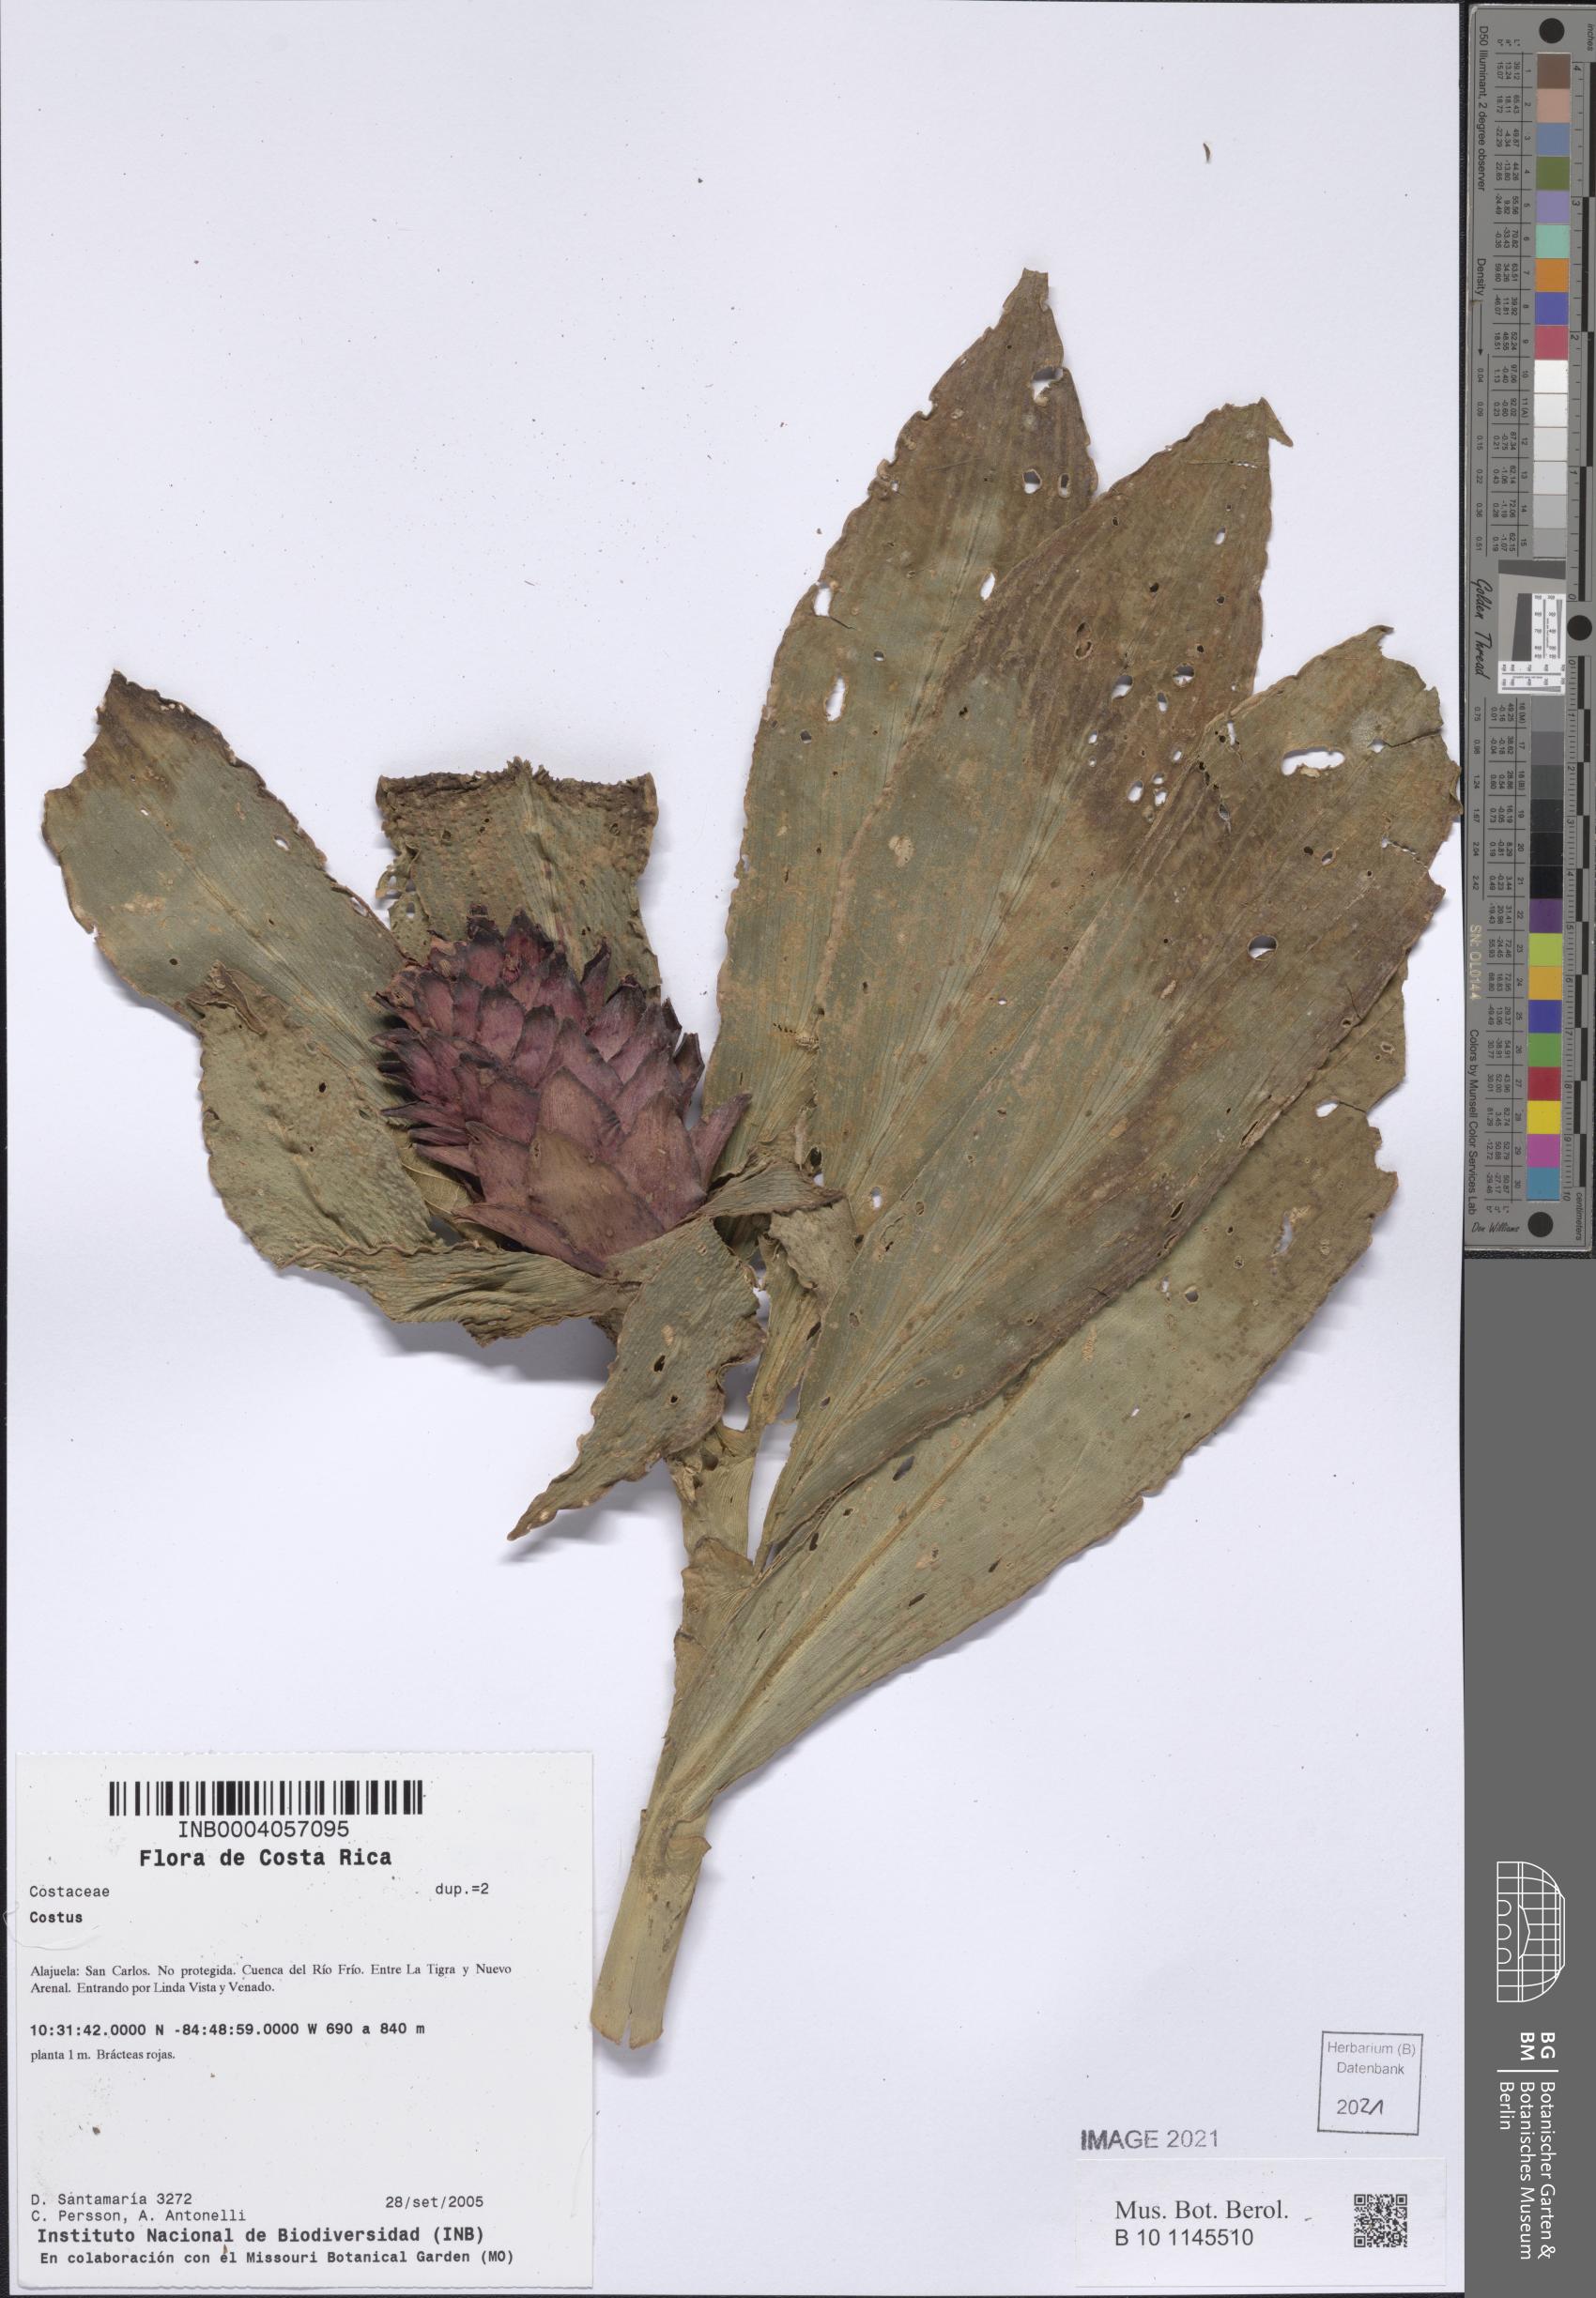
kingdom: Plantae
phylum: Tracheophyta
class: Liliopsida
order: Zingiberales
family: Costaceae
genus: Costus
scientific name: Costus
